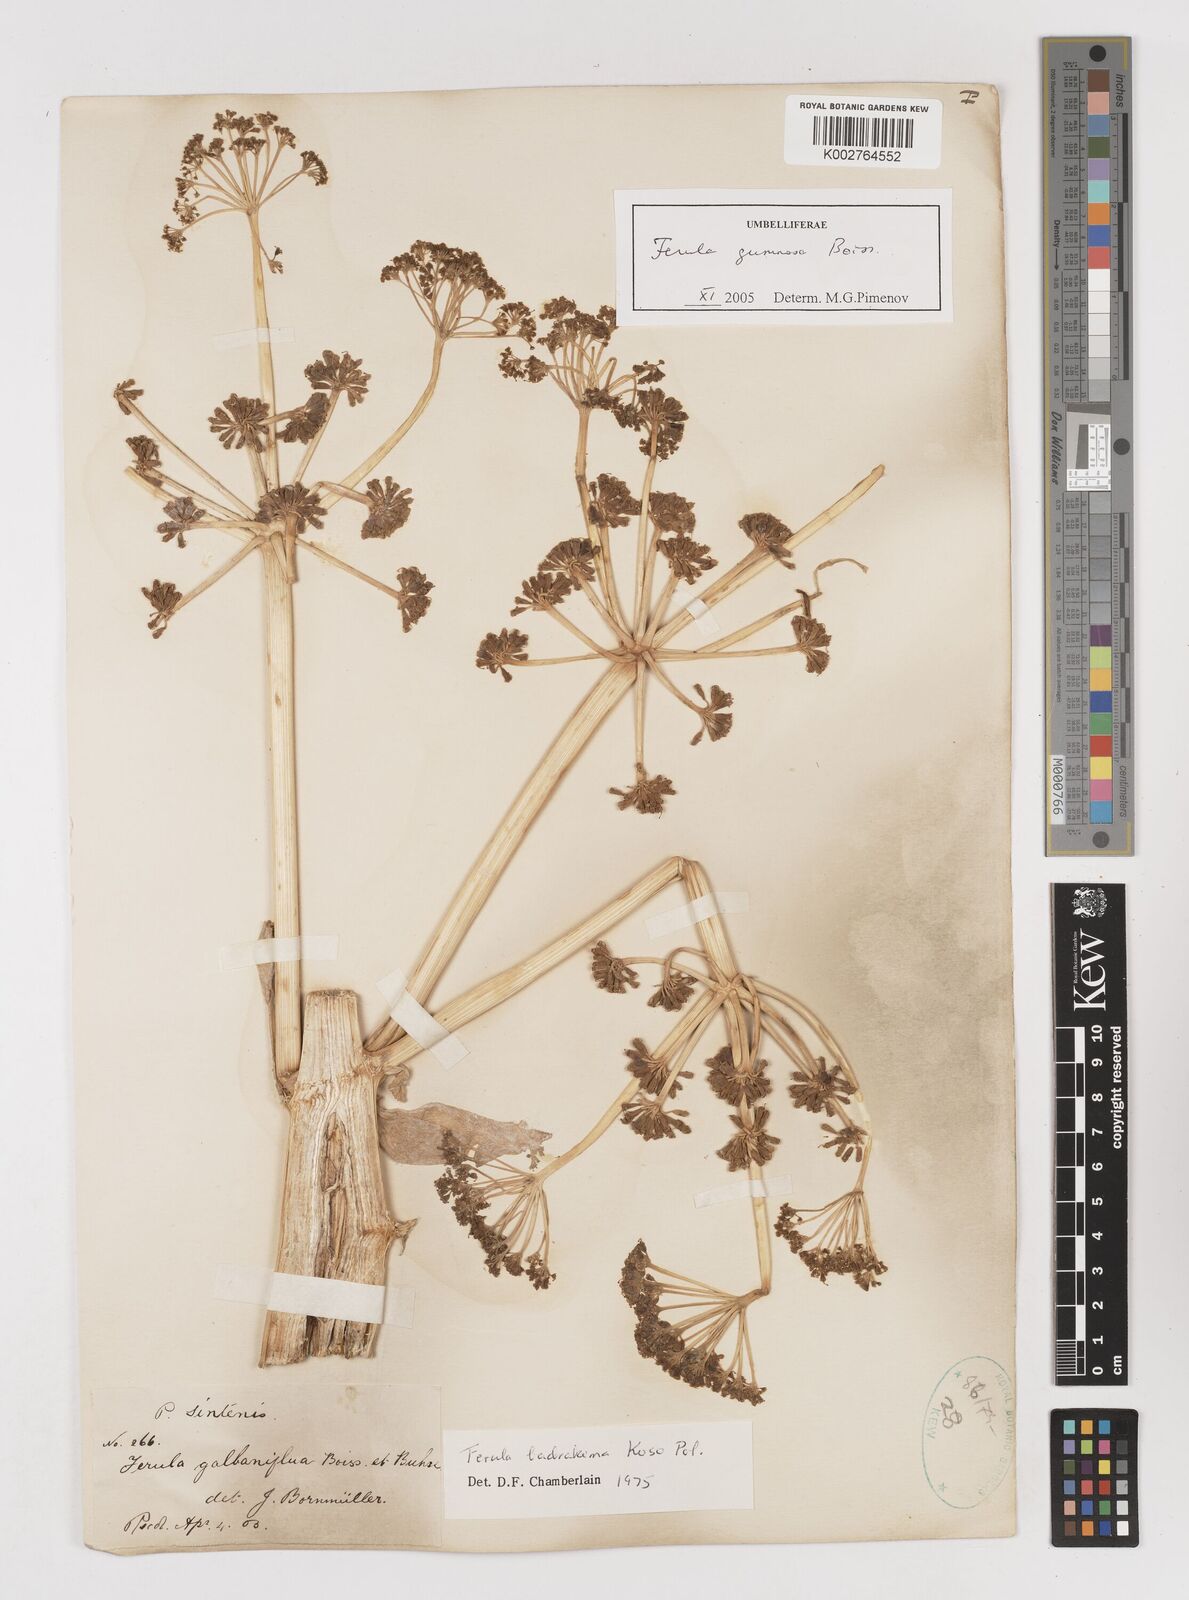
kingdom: Plantae
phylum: Tracheophyta
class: Magnoliopsida
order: Apiales
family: Apiaceae
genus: Ferula
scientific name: Ferula gummosa
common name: Galbanum
